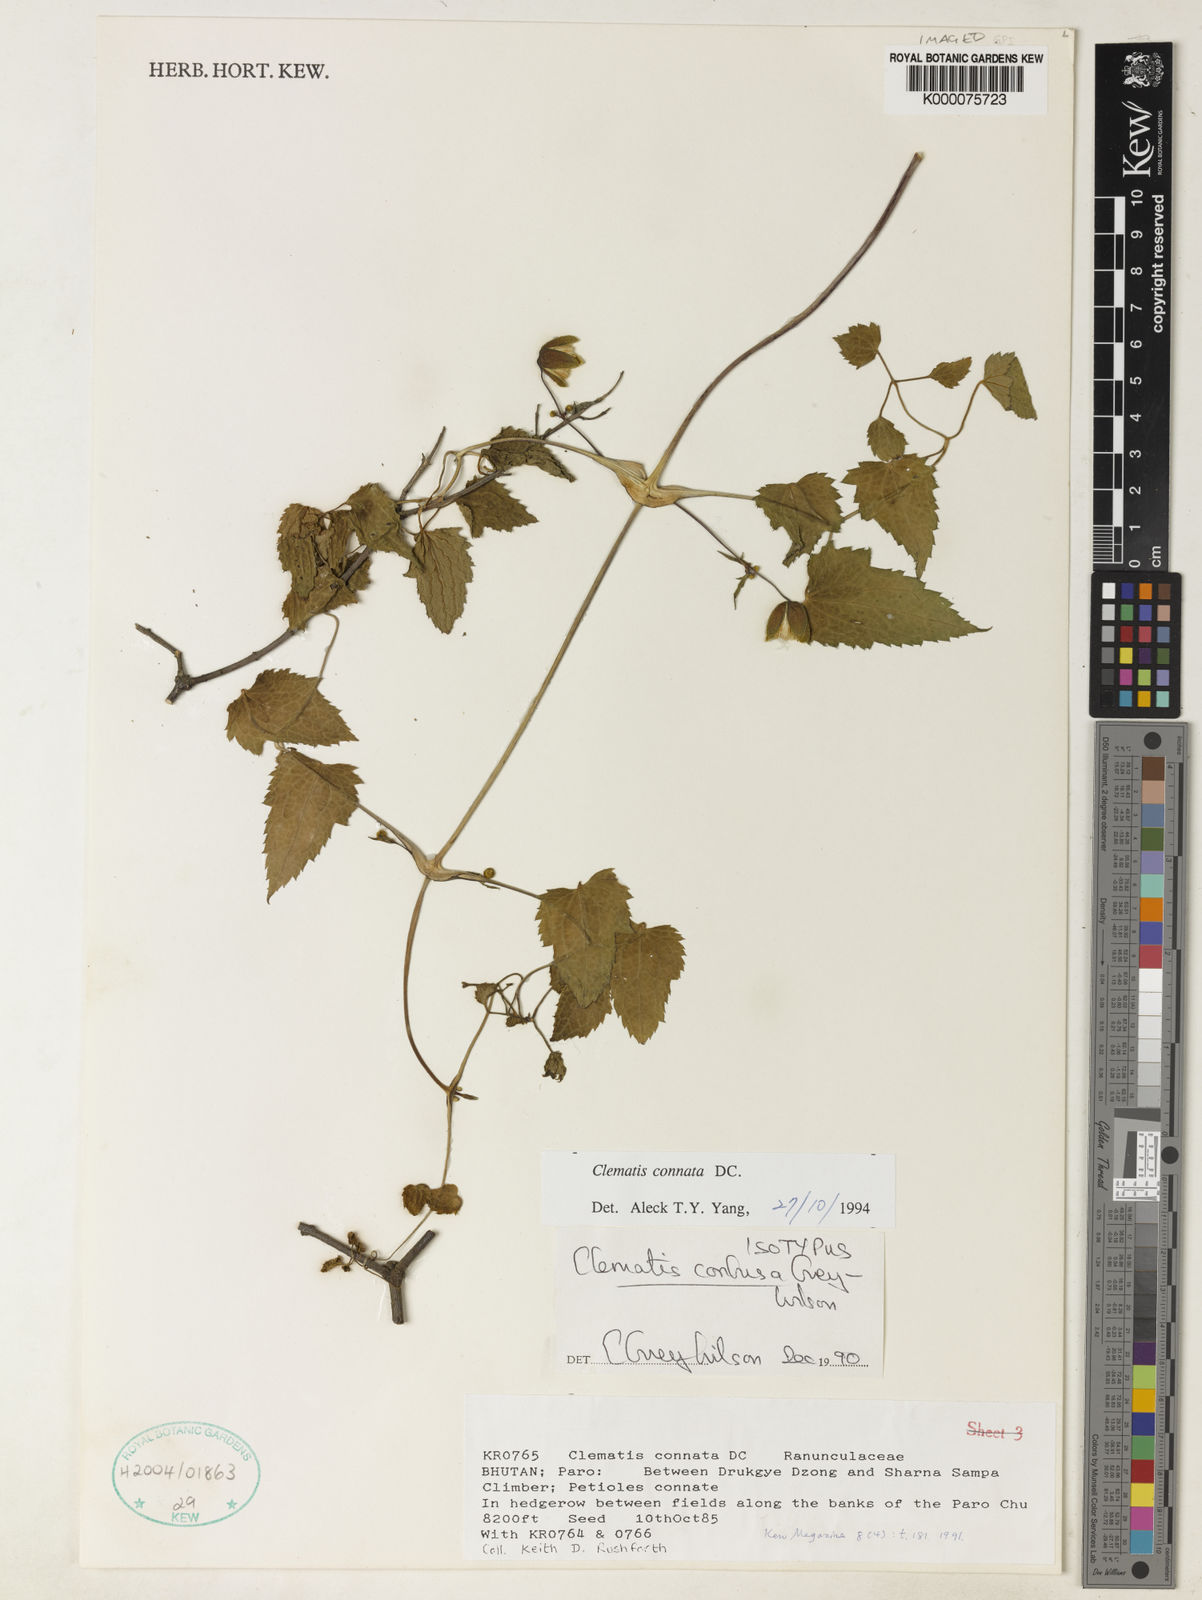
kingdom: Plantae
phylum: Tracheophyta
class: Magnoliopsida
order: Ranunculales
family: Ranunculaceae
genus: Clematis
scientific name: Clematis confusa
